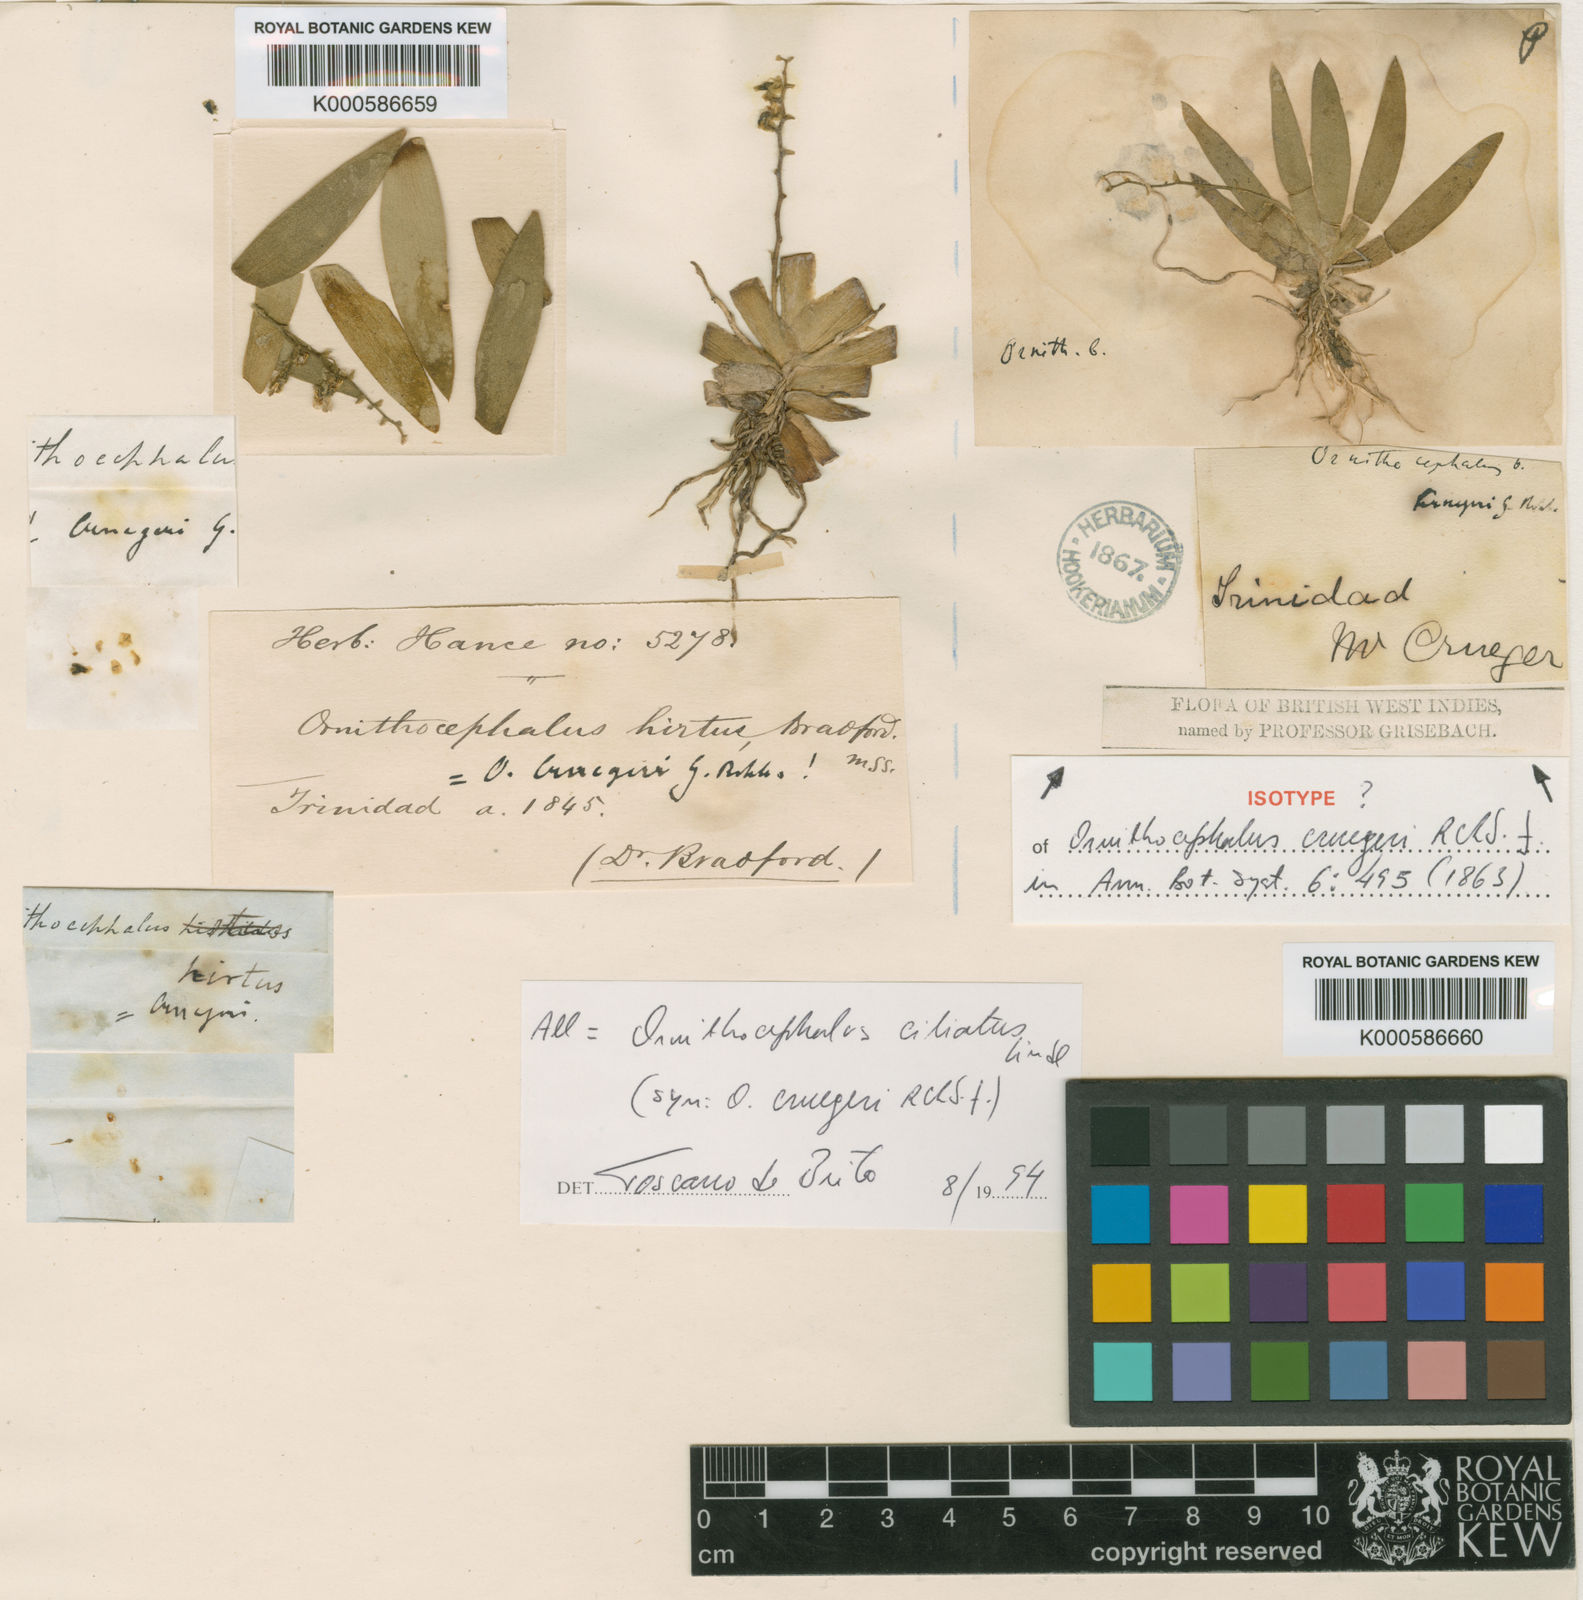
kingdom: Plantae
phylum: Tracheophyta
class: Liliopsida
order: Asparagales
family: Orchidaceae
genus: Ornithocephalus
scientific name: Ornithocephalus ciliatus
